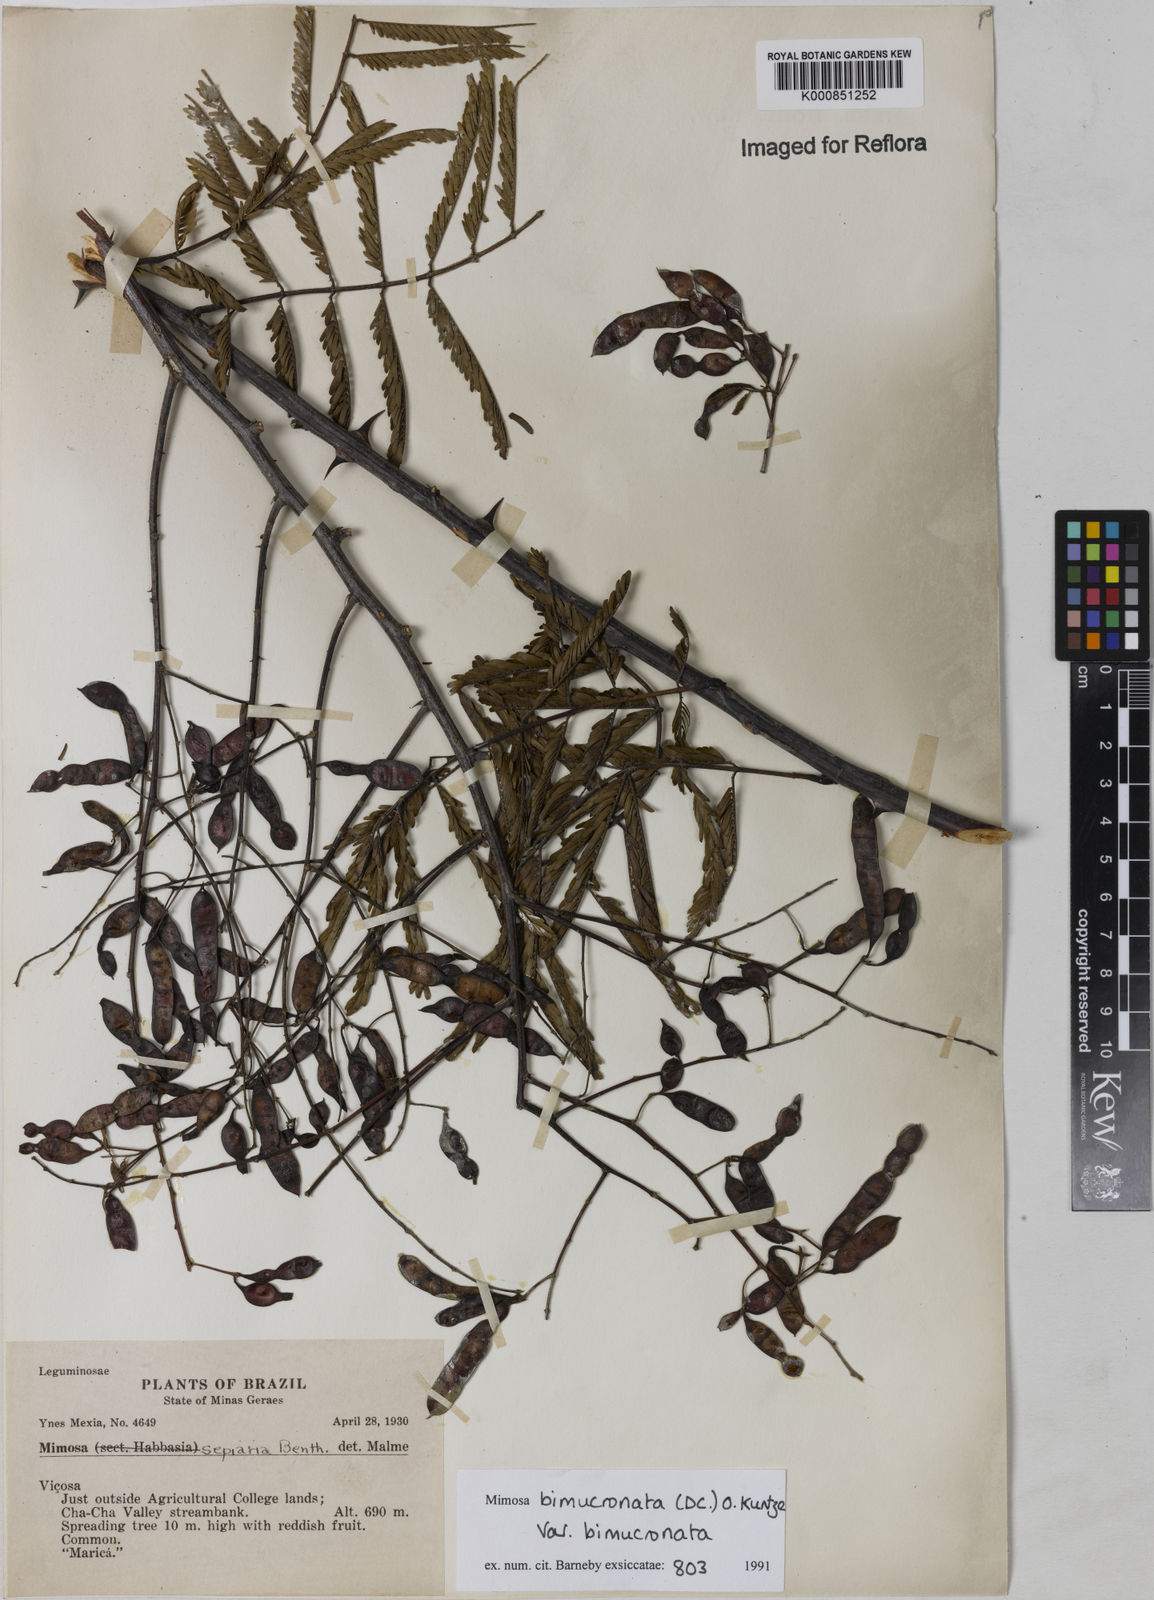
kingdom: Plantae
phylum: Tracheophyta
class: Magnoliopsida
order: Fabales
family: Fabaceae
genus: Mimosa
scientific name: Mimosa bimucronata
